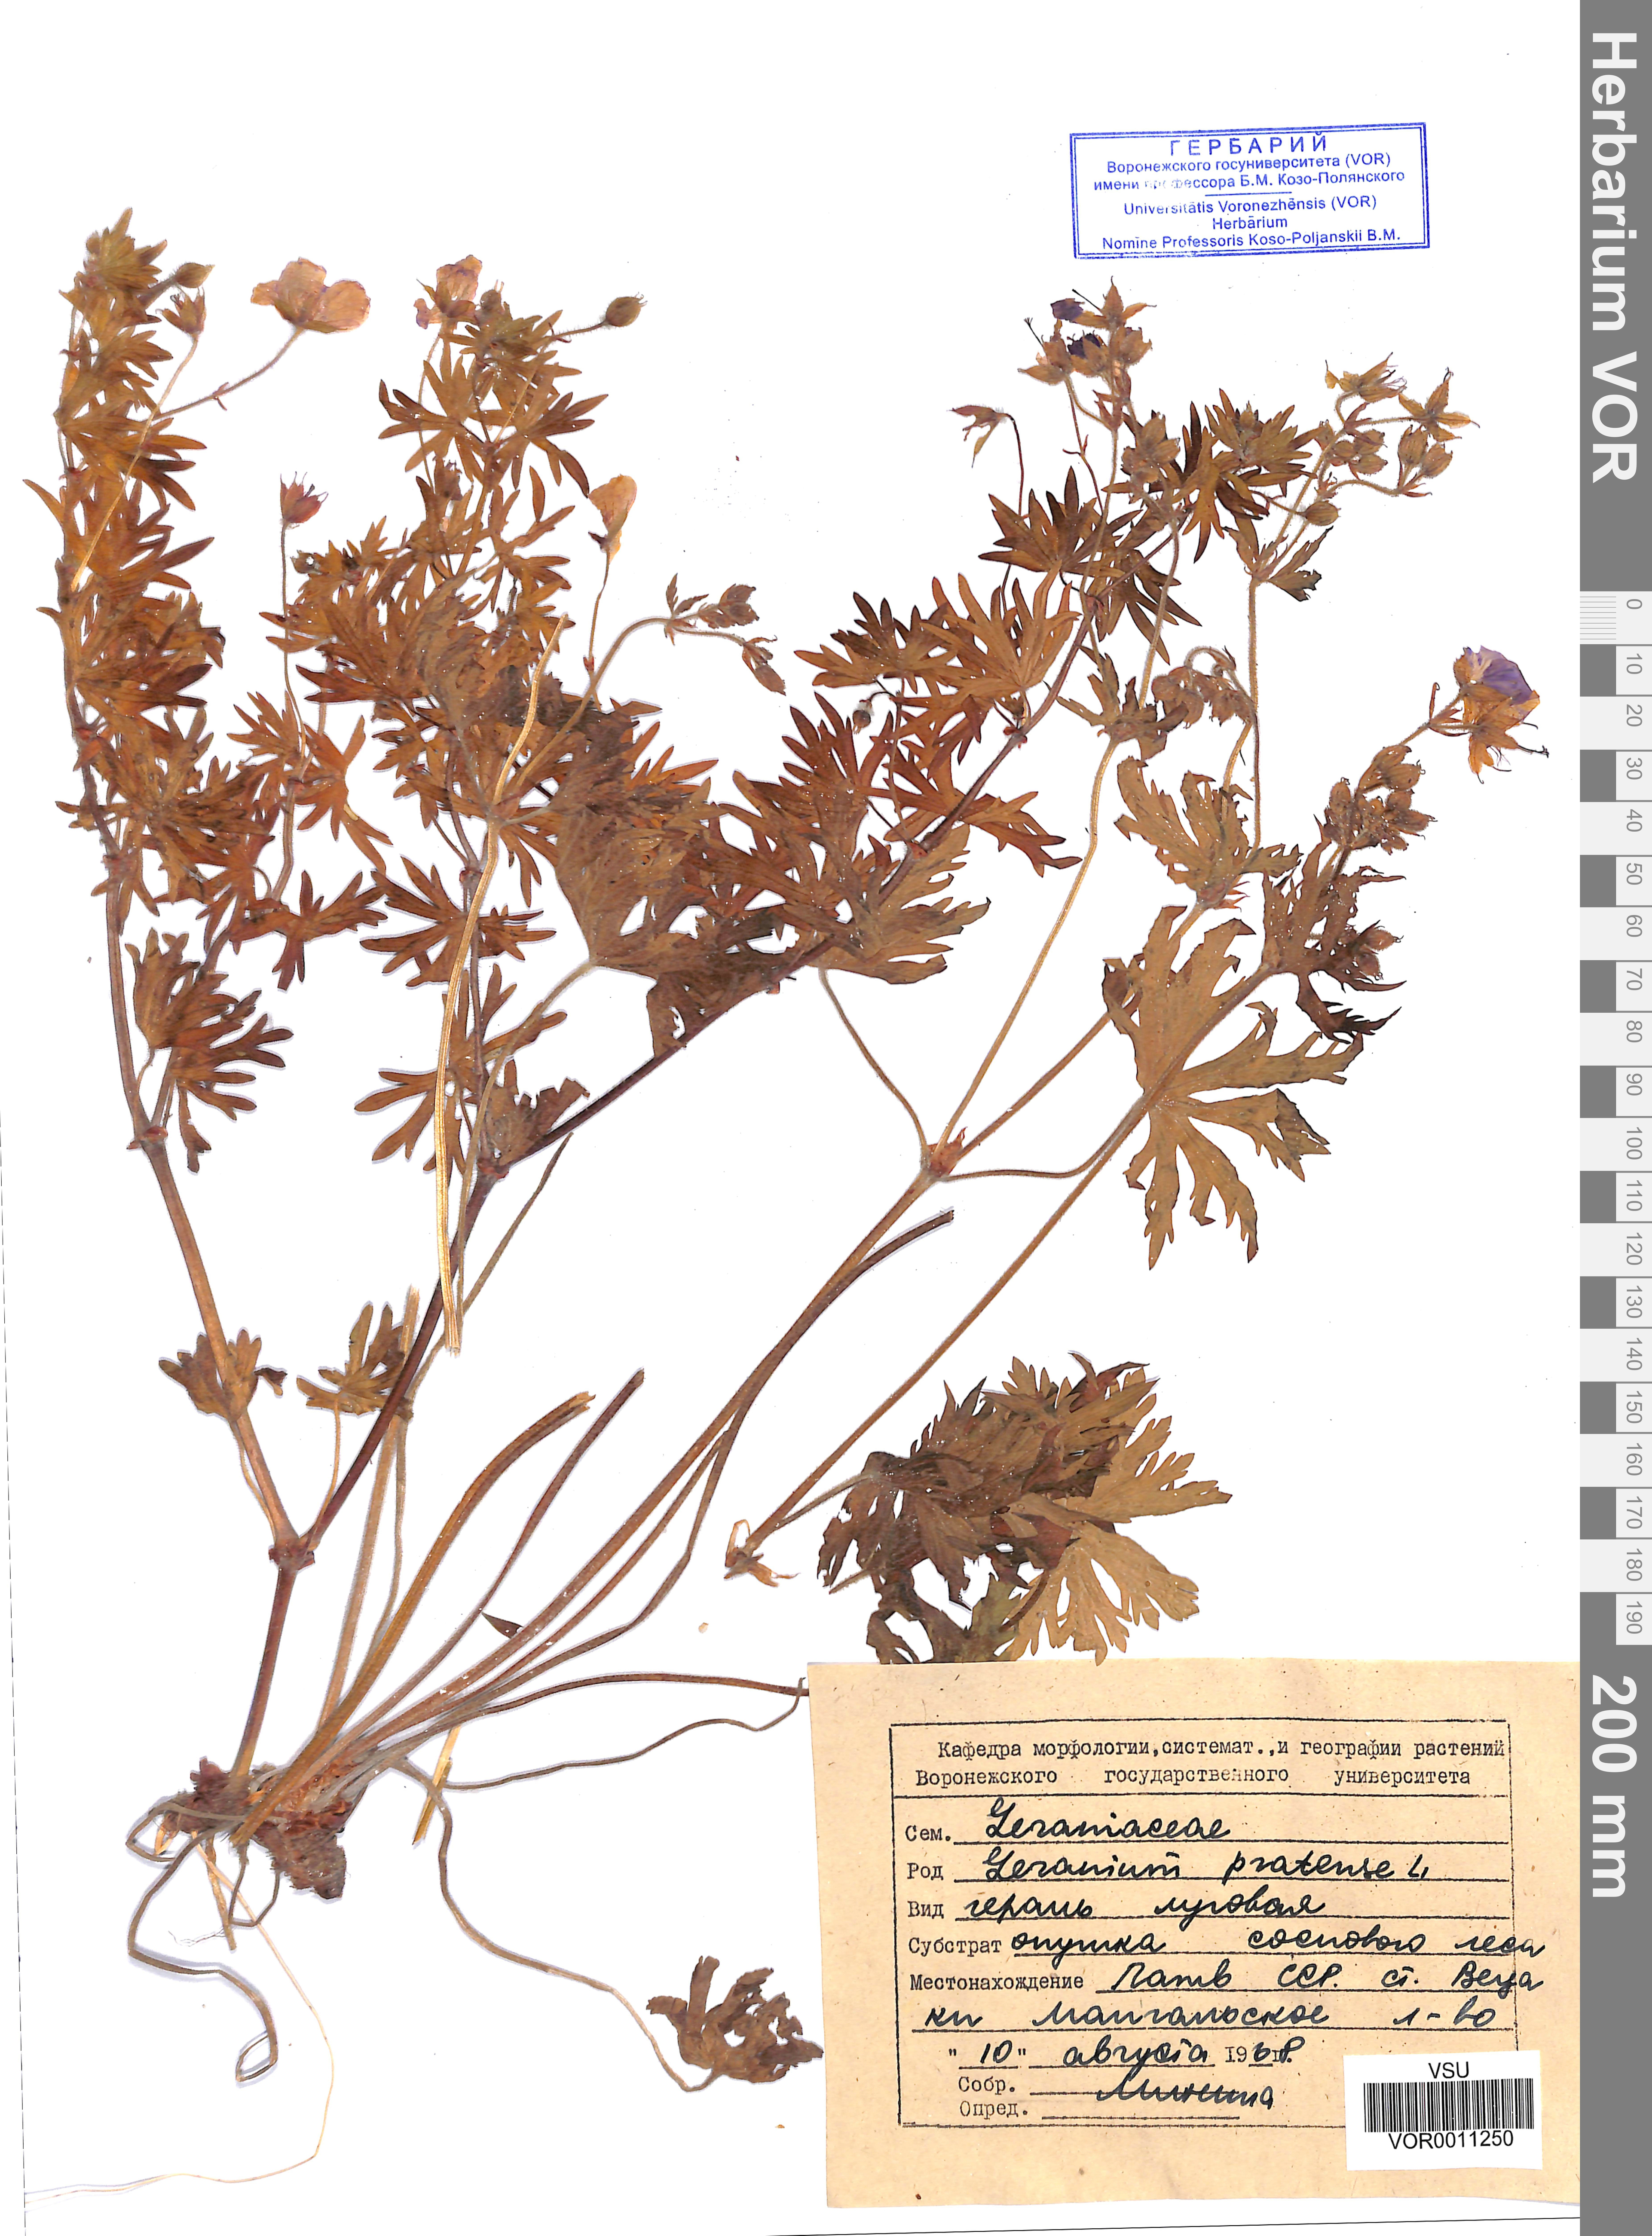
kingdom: Plantae
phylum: Tracheophyta
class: Magnoliopsida
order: Geraniales
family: Geraniaceae
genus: Geranium
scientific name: Geranium pratense
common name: Meadow crane's-bill
